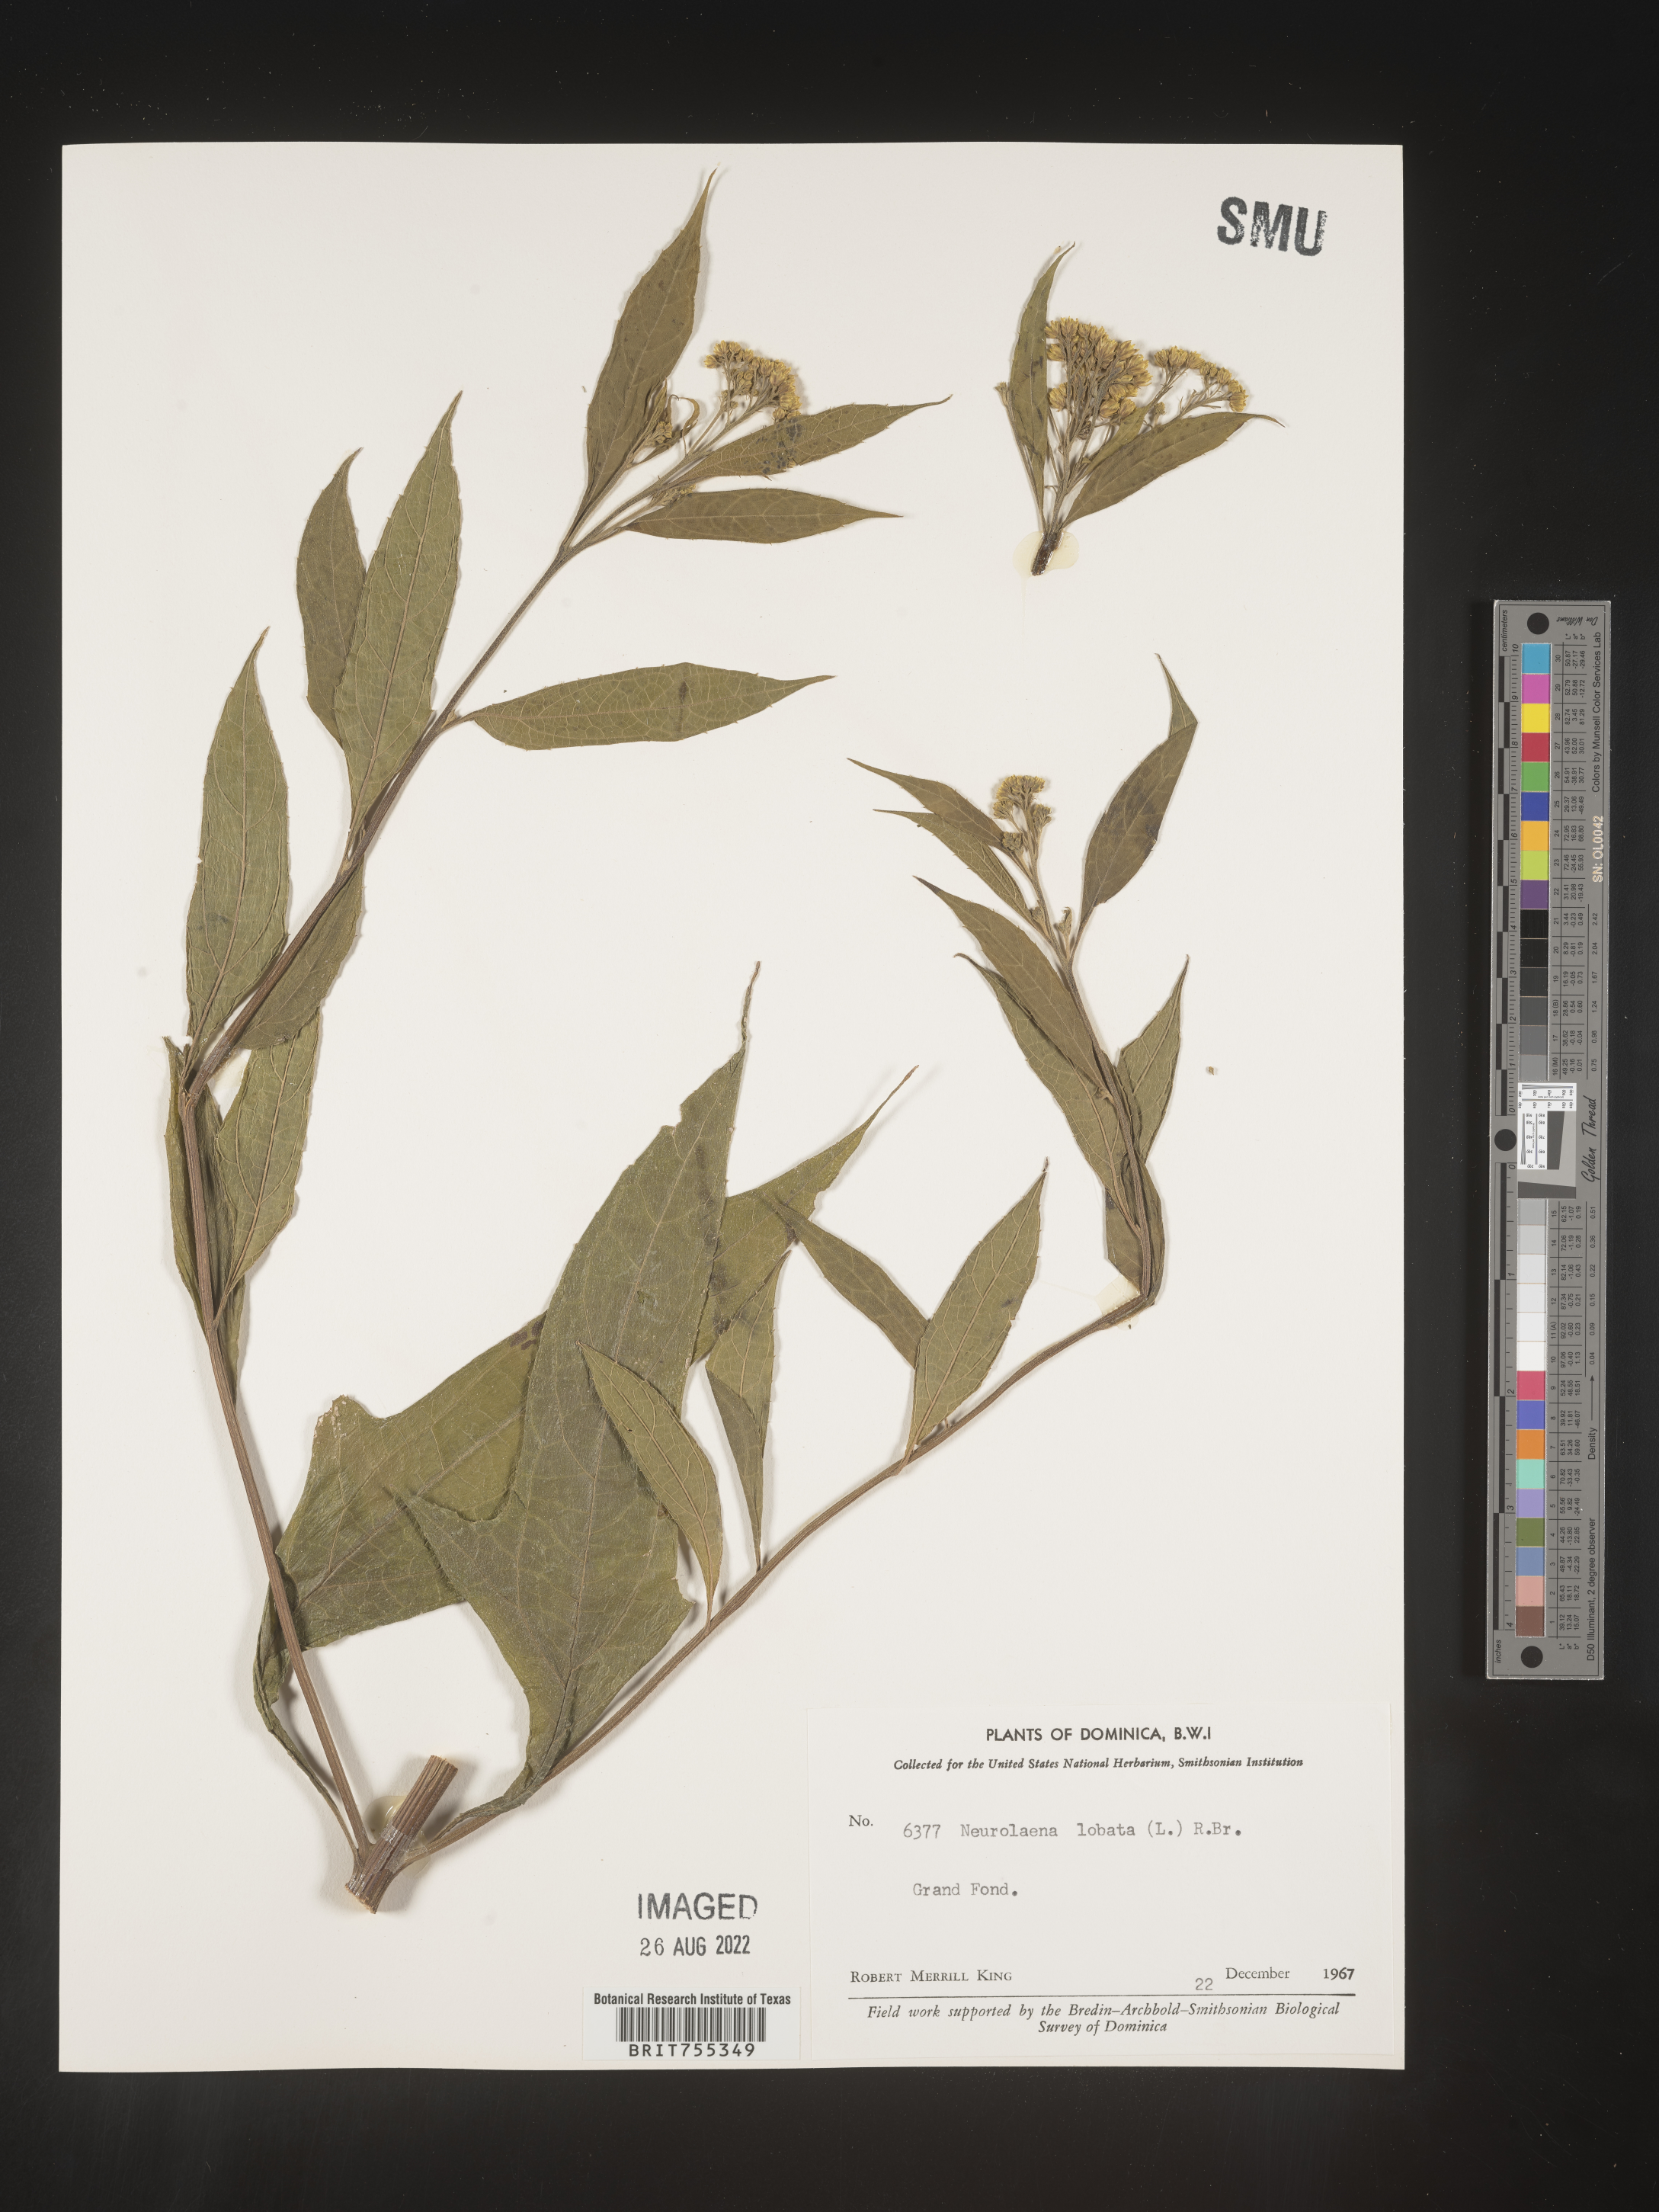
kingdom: Plantae
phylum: Tracheophyta
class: Magnoliopsida
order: Asterales
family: Asteraceae
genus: Neurolaena
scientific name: Neurolaena
